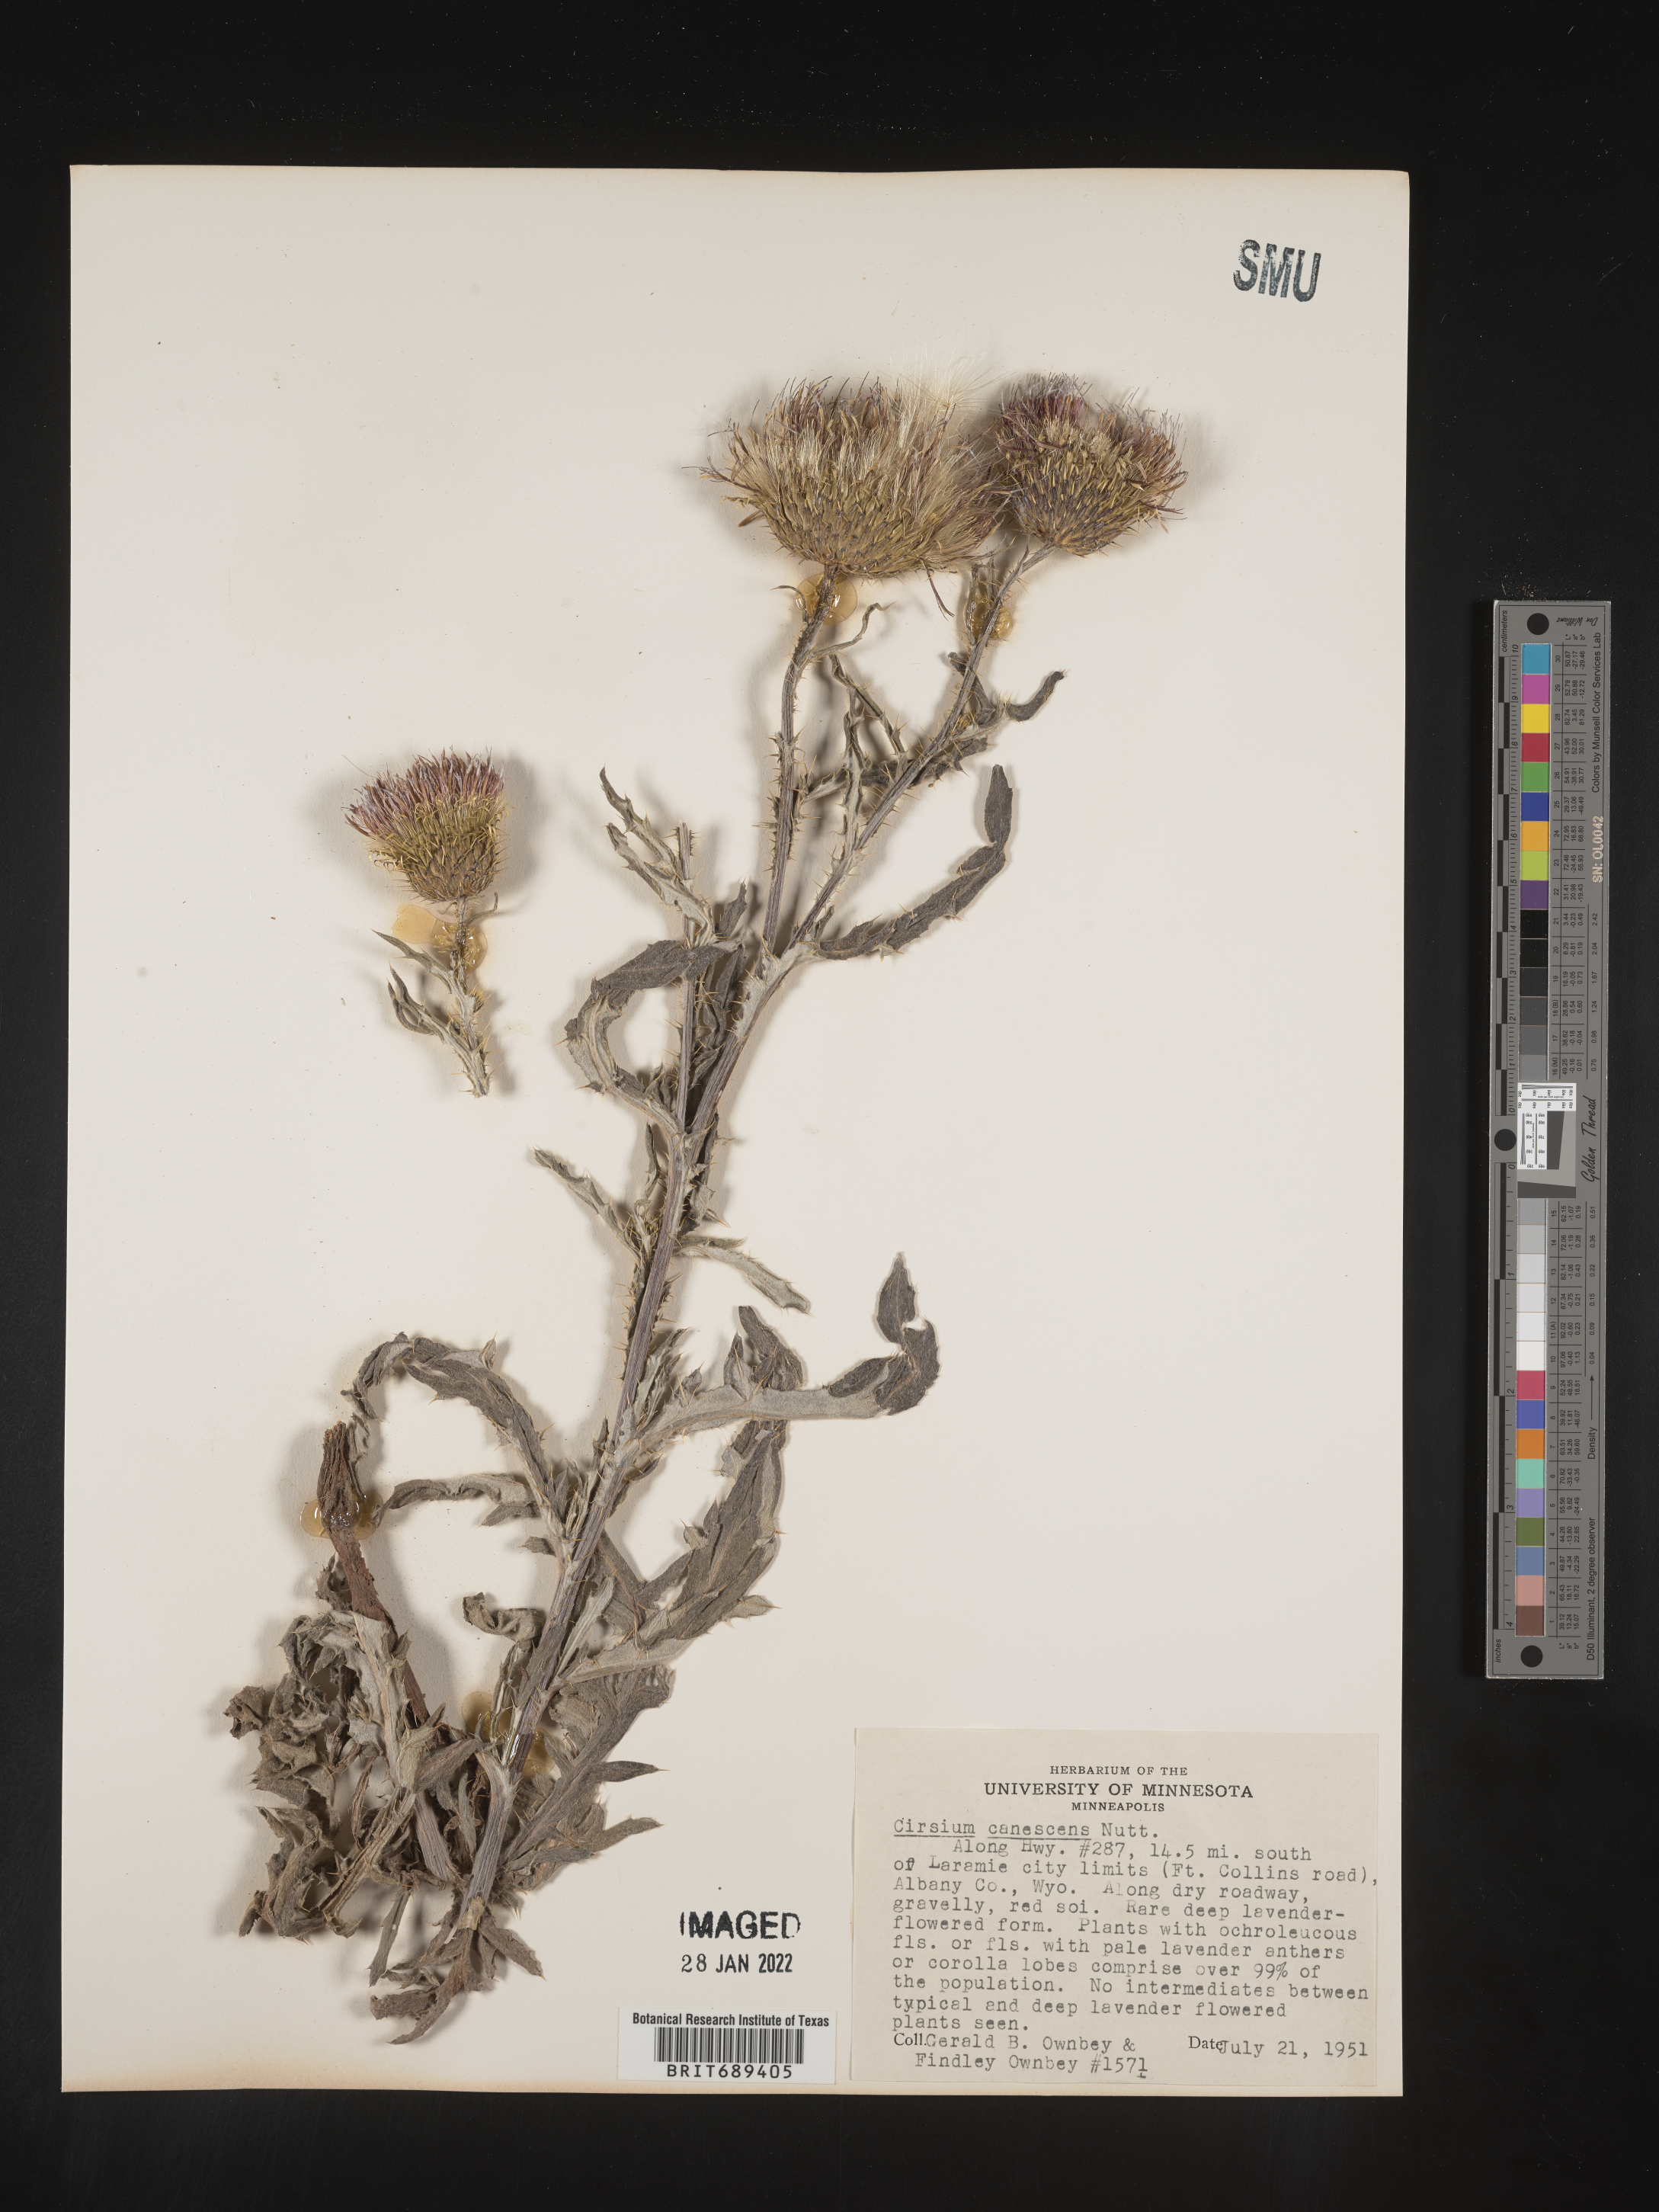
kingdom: Plantae
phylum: Tracheophyta
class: Magnoliopsida
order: Asterales
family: Asteraceae
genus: Cirsium
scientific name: Cirsium canescens
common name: Prairie thistle
